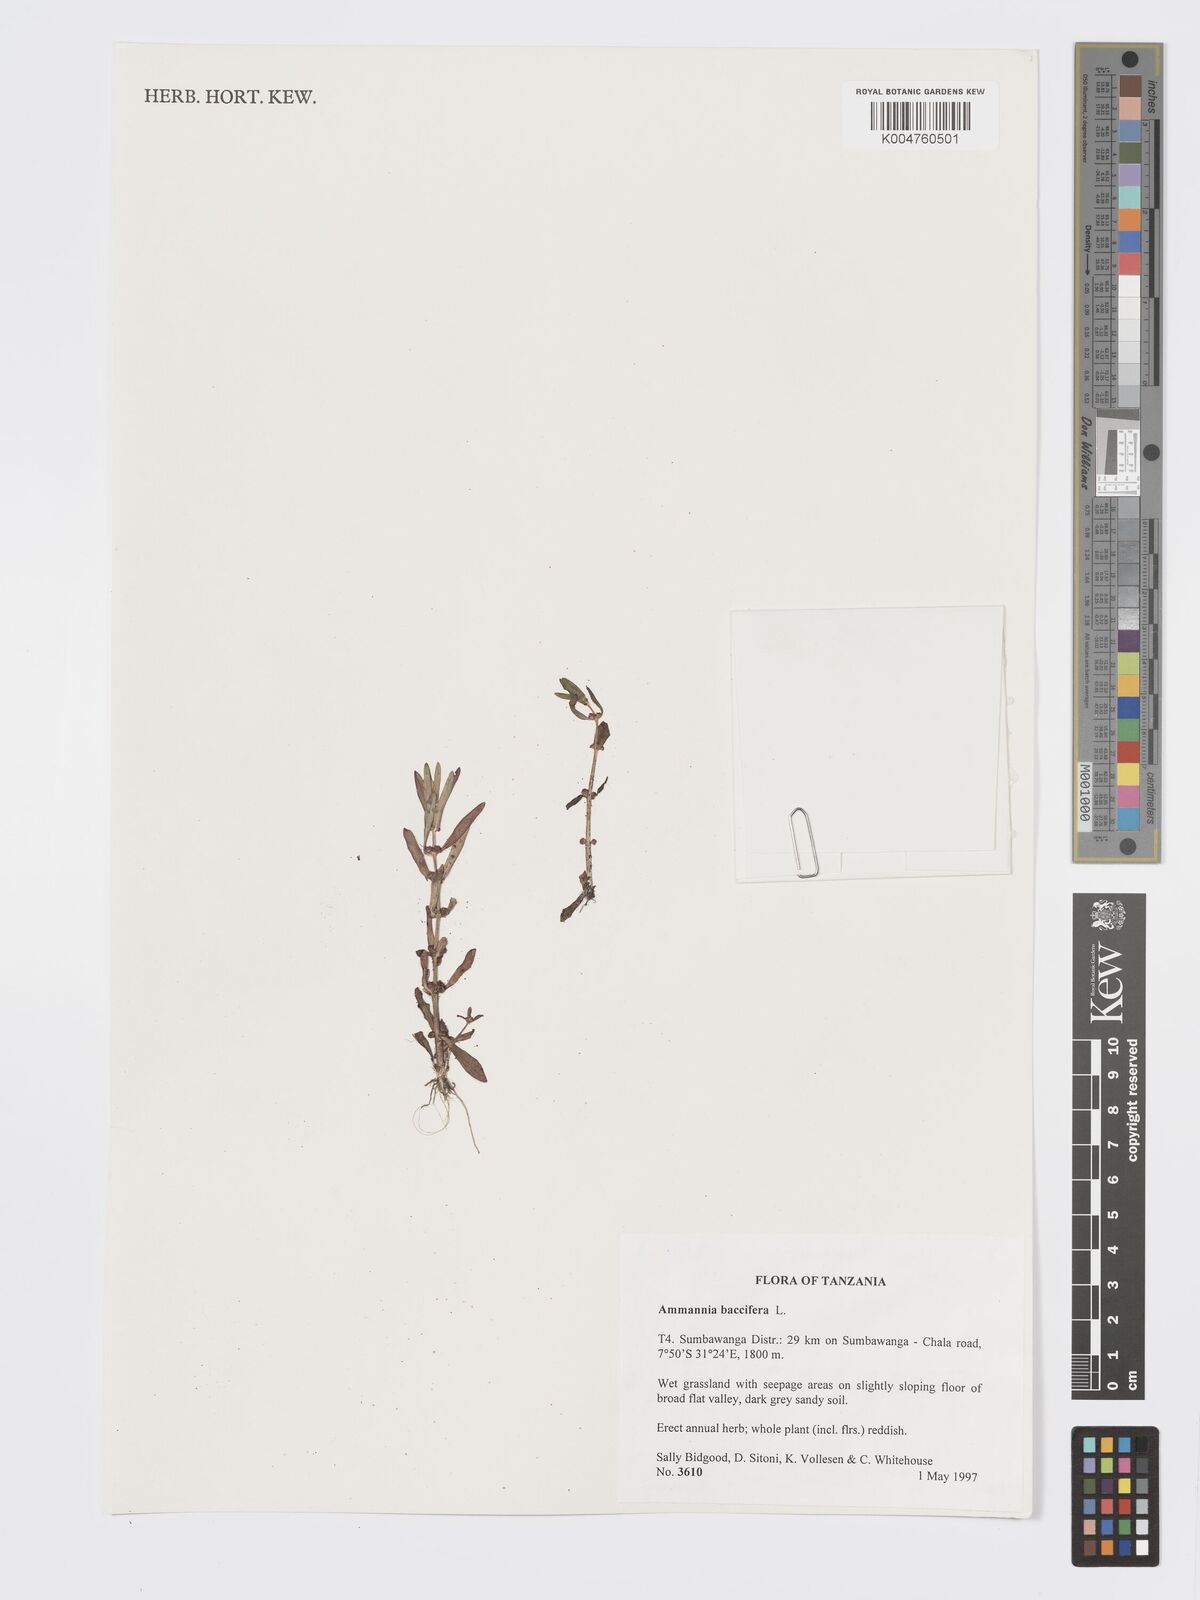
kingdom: Plantae
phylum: Tracheophyta
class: Magnoliopsida
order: Myrtales
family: Lythraceae
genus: Ammannia
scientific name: Ammannia
